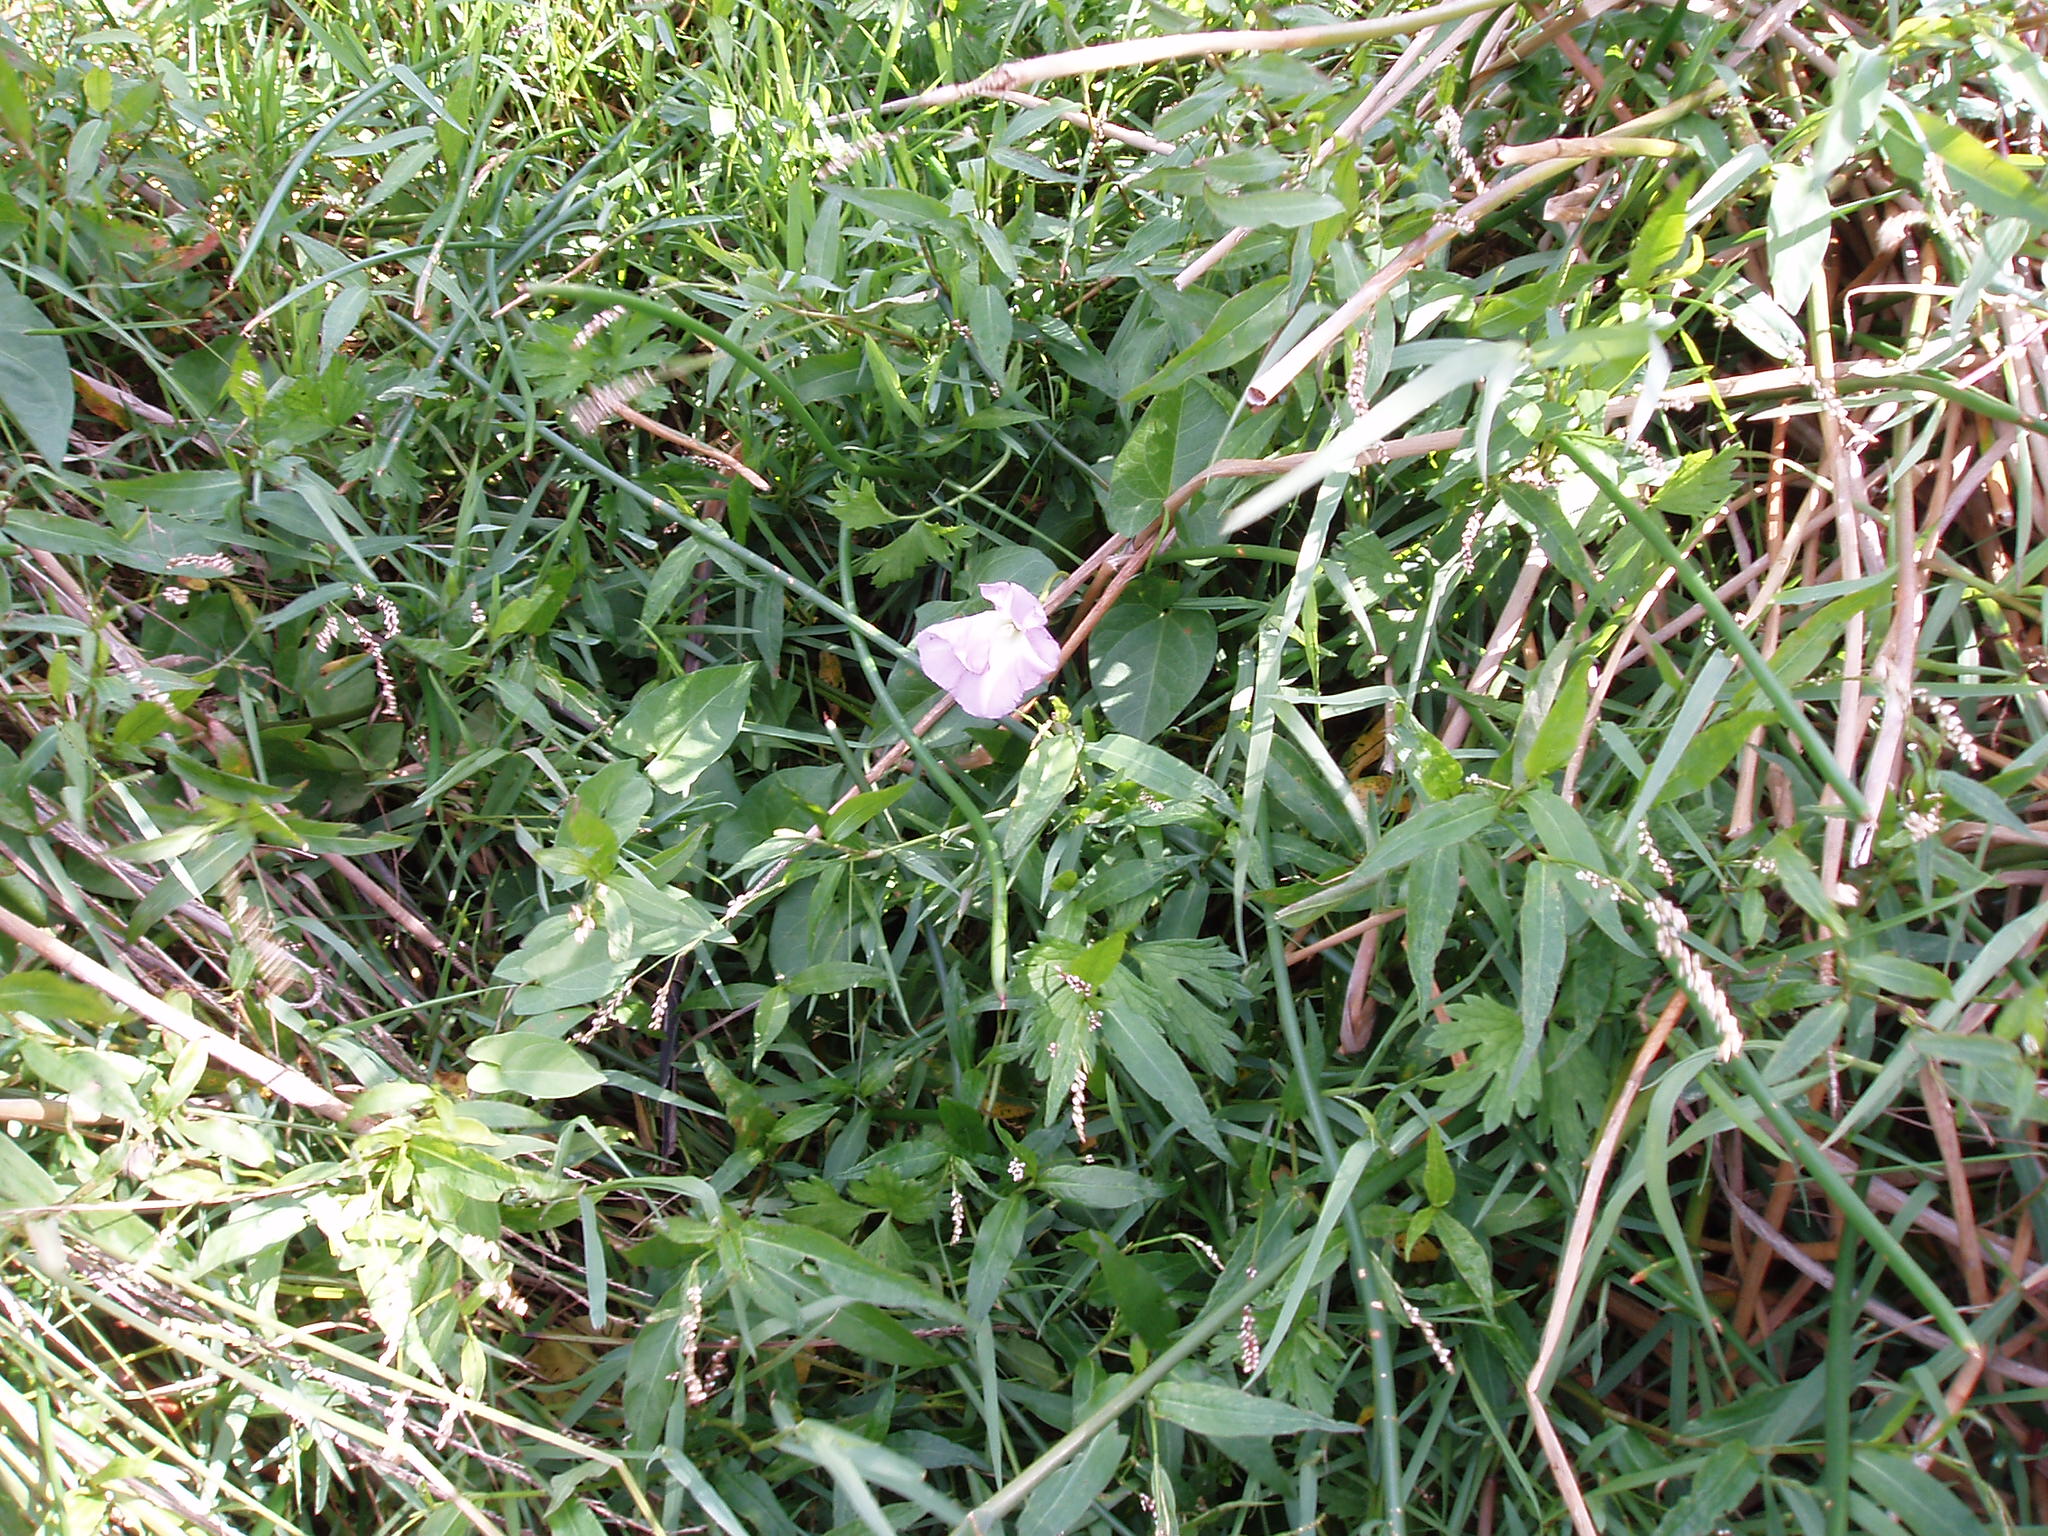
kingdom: Plantae
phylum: Tracheophyta
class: Magnoliopsida
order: Solanales
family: Convolvulaceae
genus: Calystegia
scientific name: Calystegia
